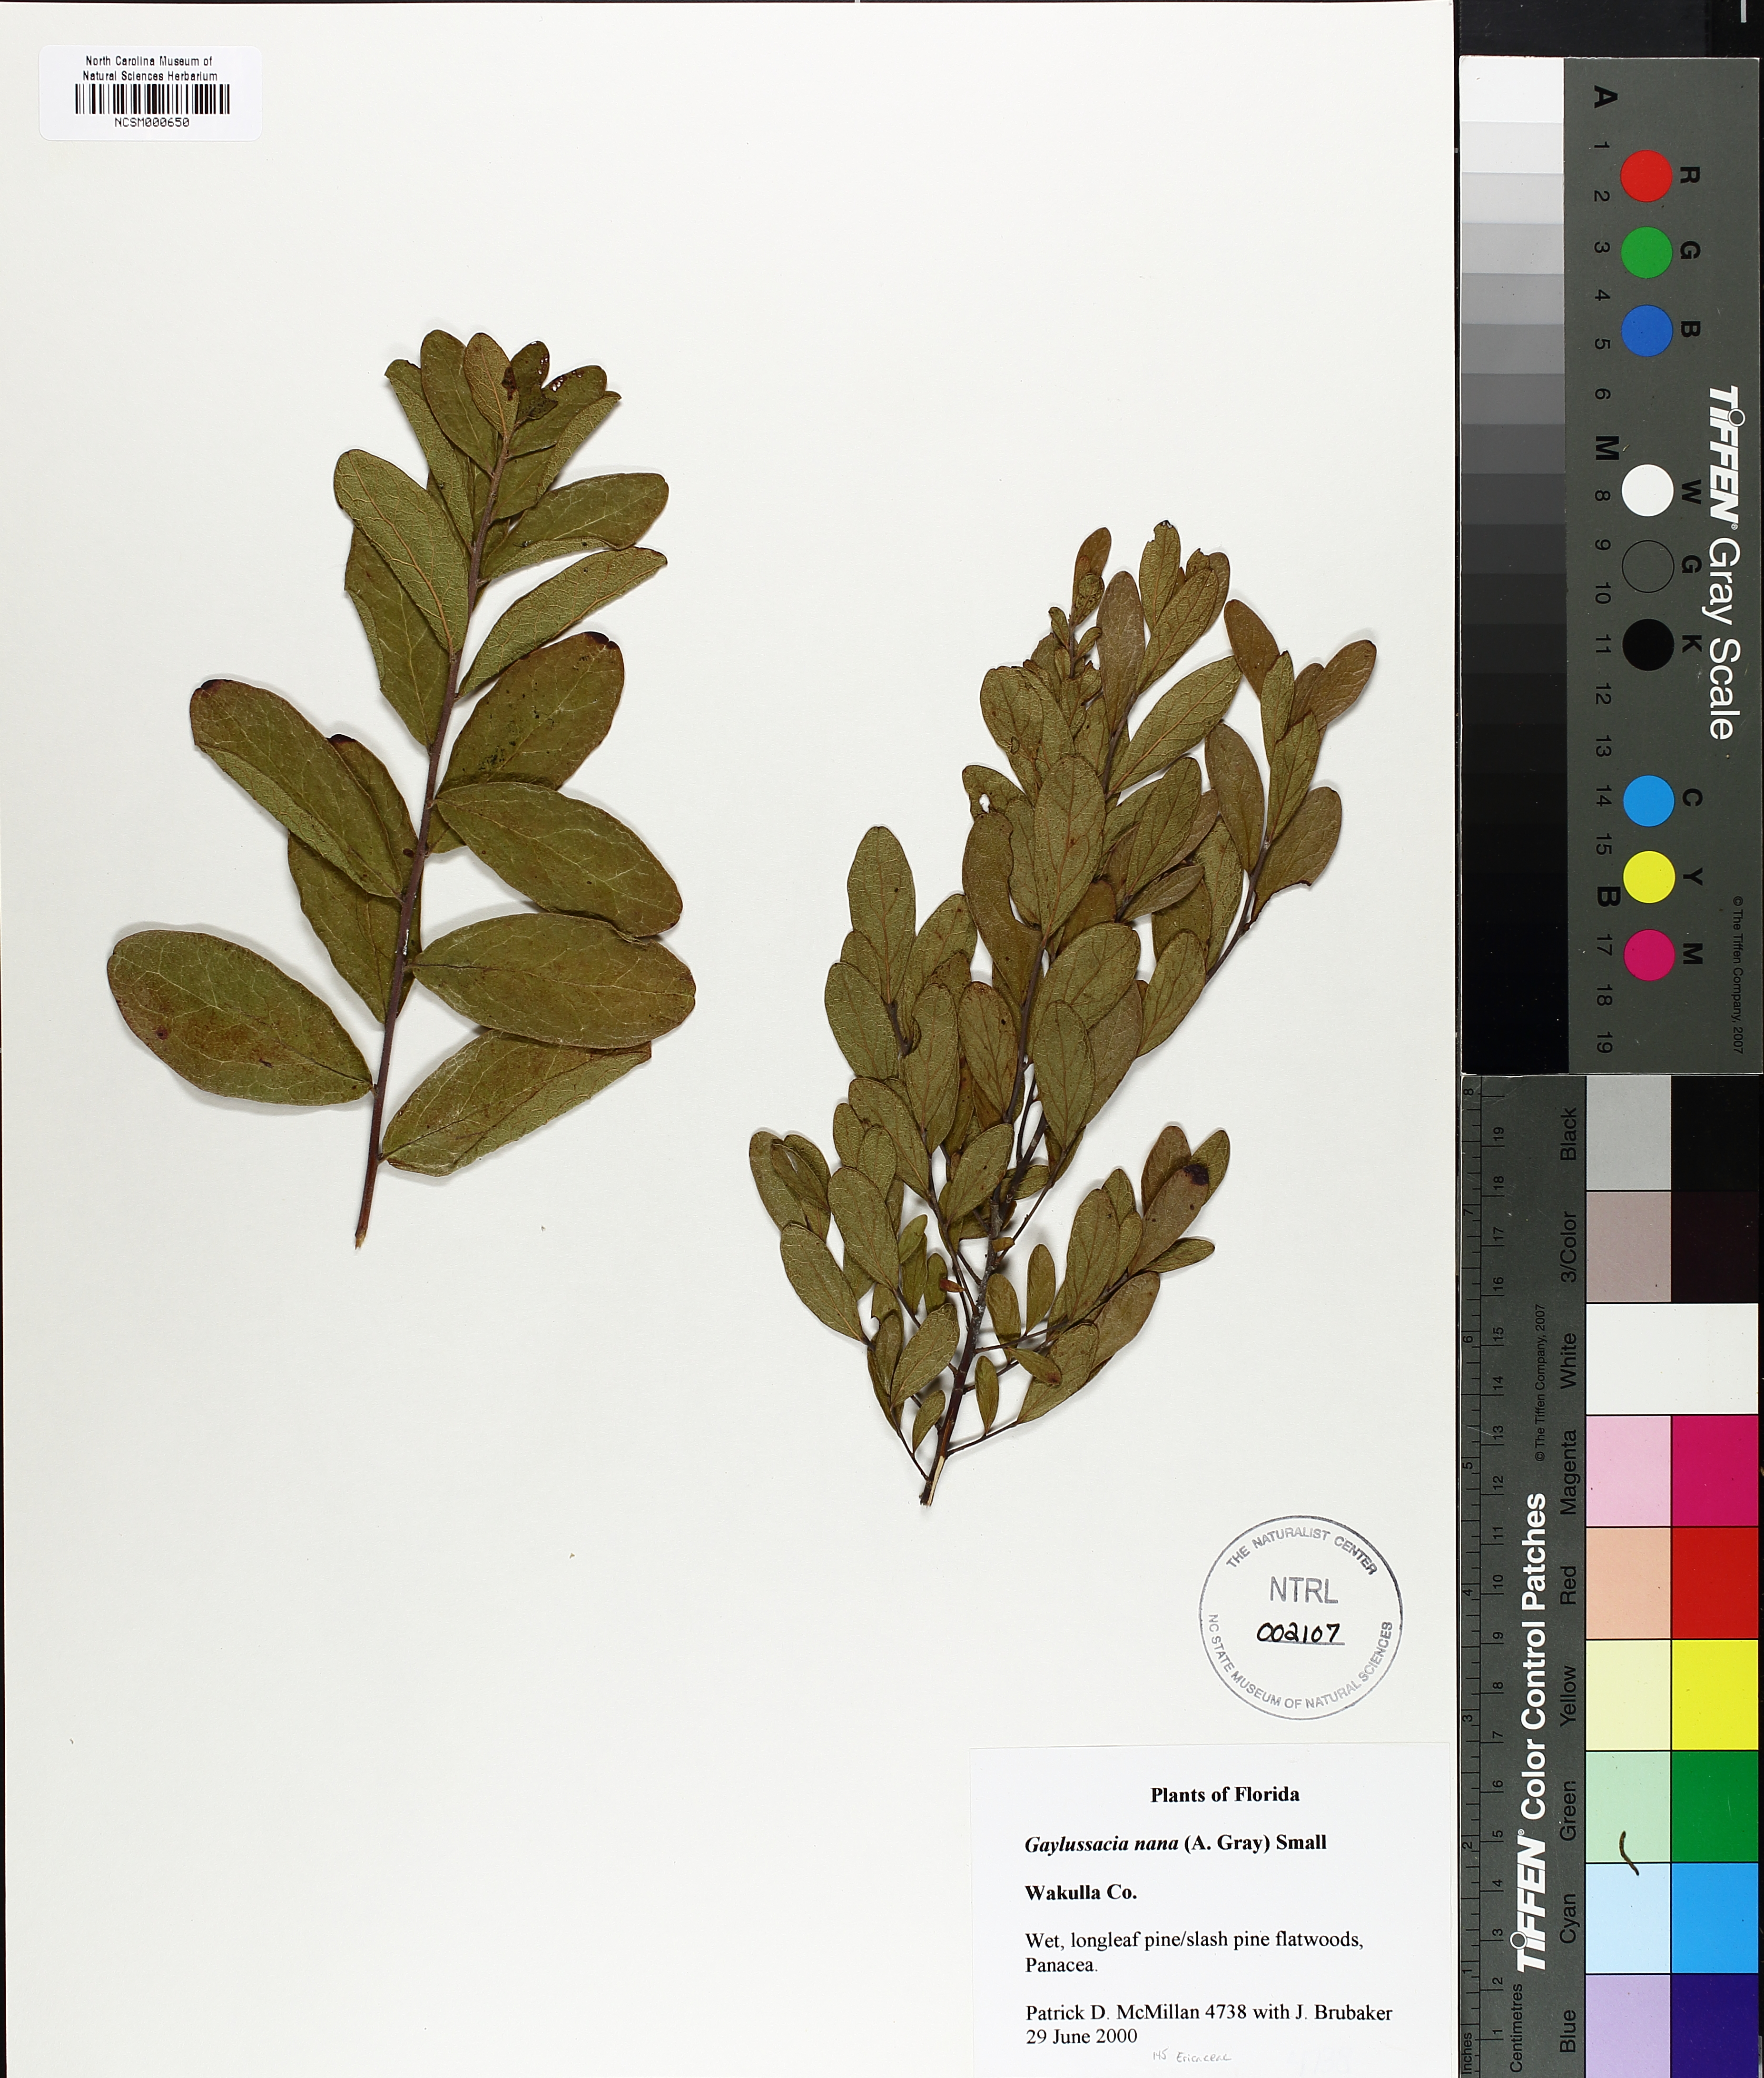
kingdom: Plantae
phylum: Tracheophyta
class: Magnoliopsida
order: Ericales
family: Ericaceae
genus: Gaylussacia
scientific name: Gaylussacia nana
